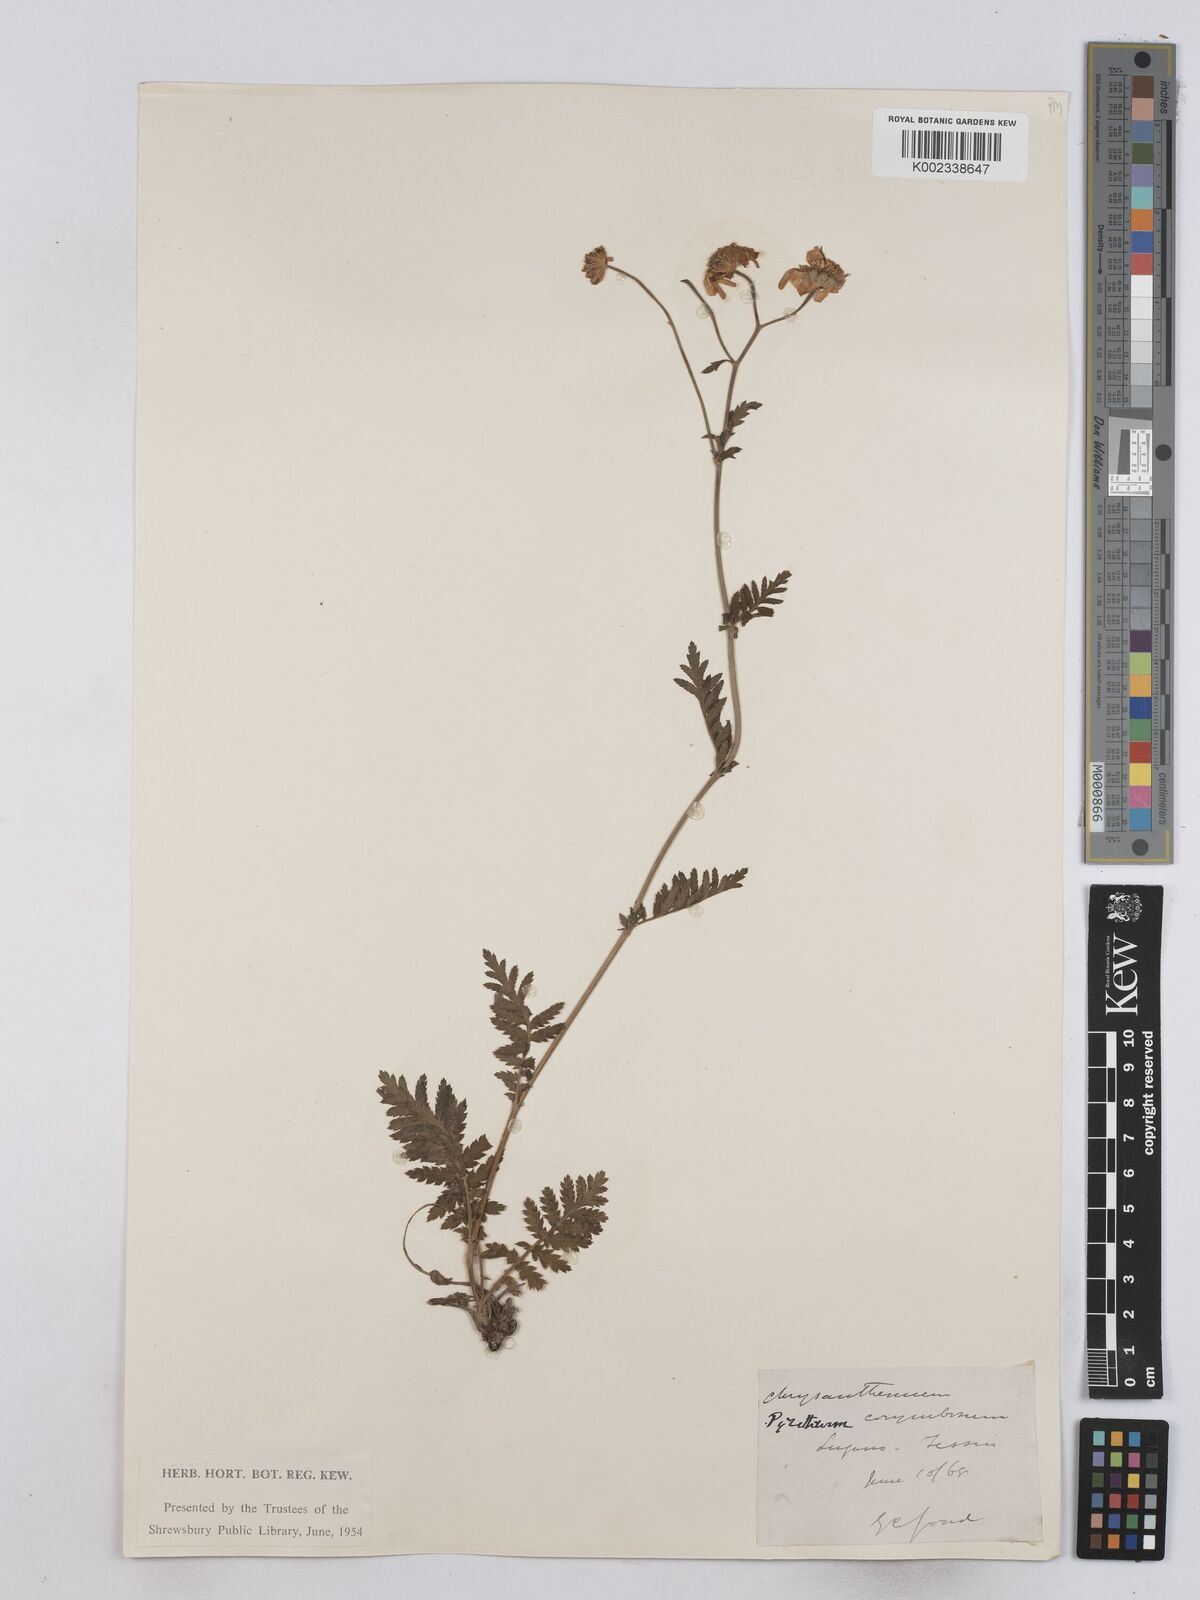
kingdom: Plantae
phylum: Tracheophyta
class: Magnoliopsida
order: Asterales
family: Asteraceae
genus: Tanacetum
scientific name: Tanacetum corymbosum
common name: Scentless feverfew
